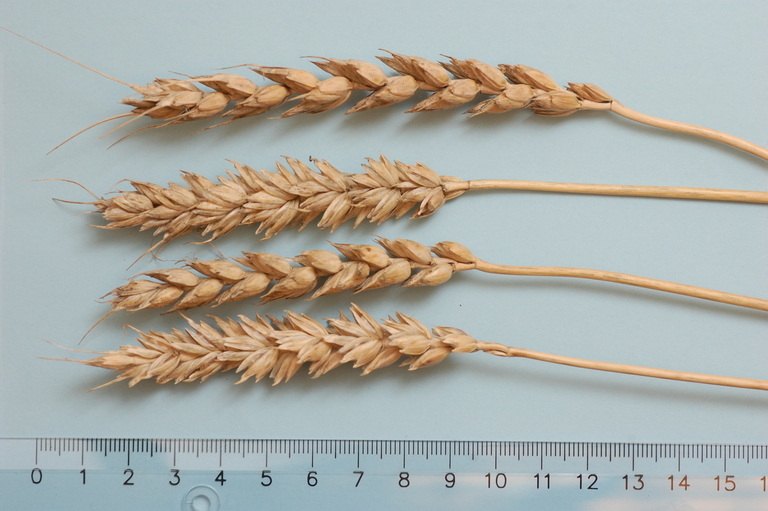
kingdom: Plantae
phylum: Tracheophyta
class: Liliopsida
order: Poales
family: Poaceae
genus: Triticum
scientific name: Triticum aestivum
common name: Common wheat
